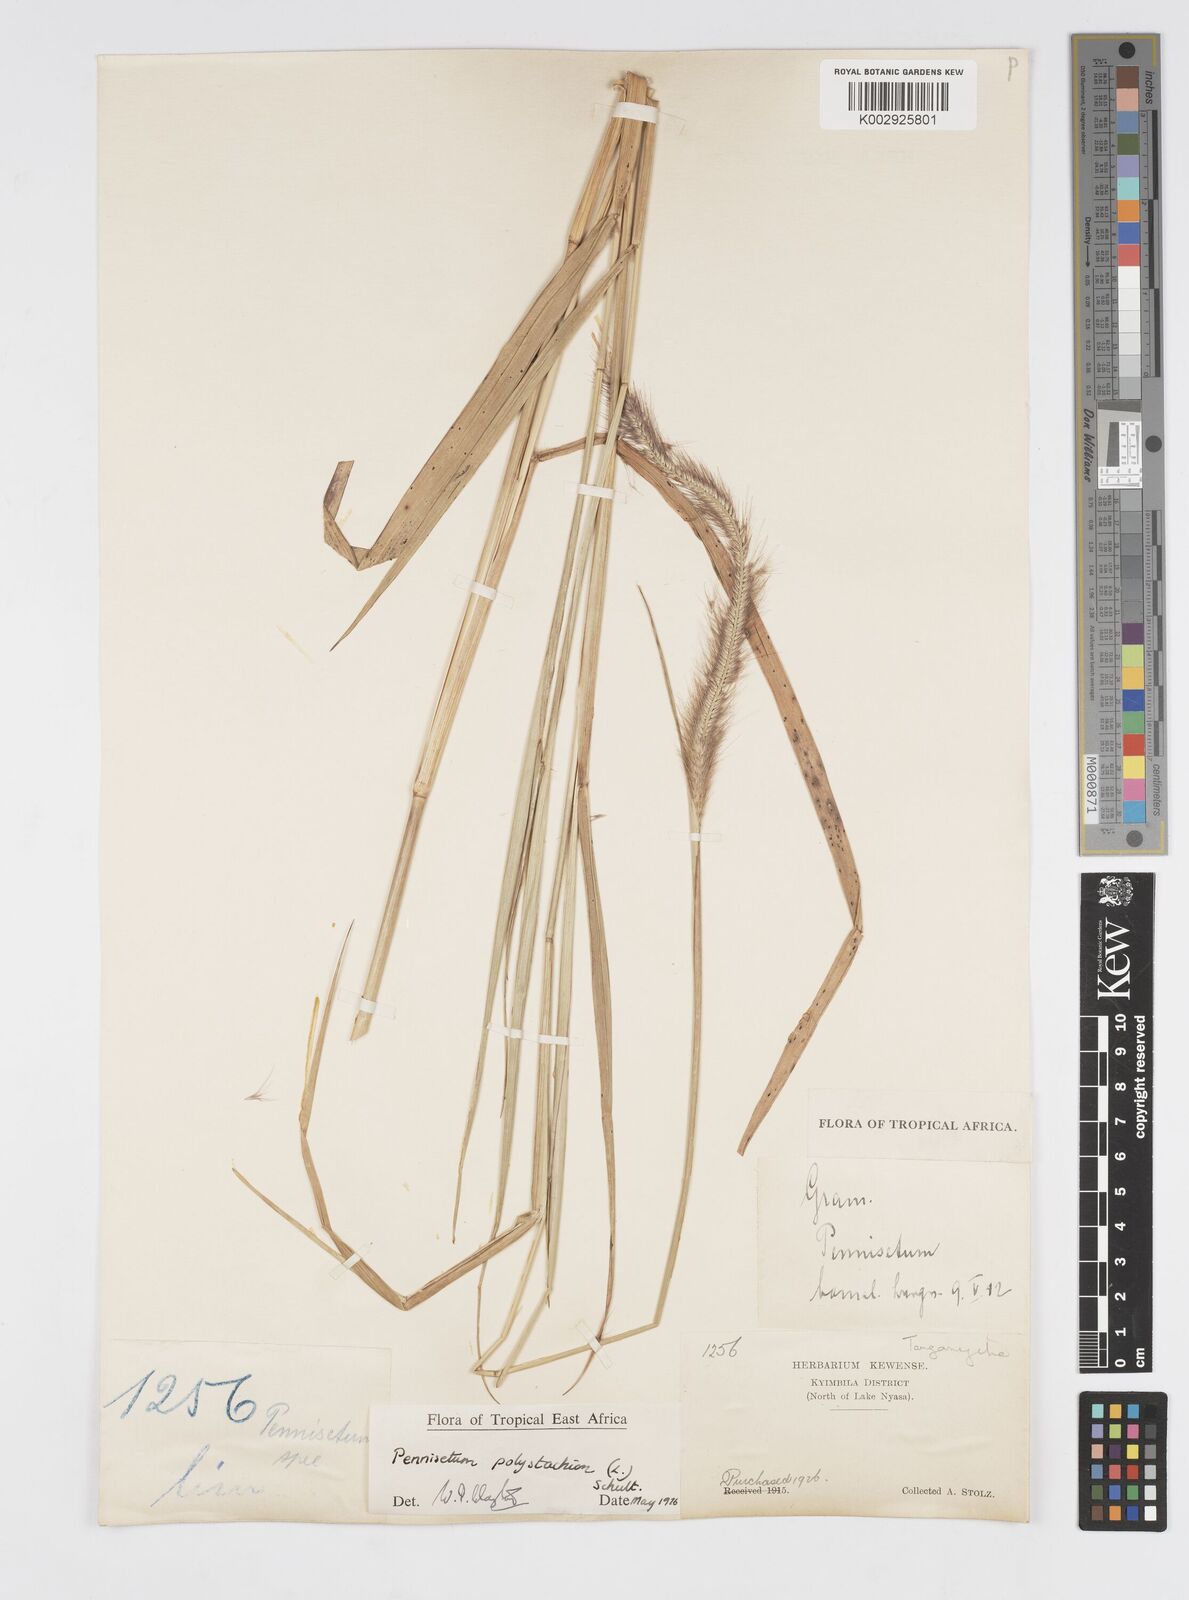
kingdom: Plantae
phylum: Tracheophyta
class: Liliopsida
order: Poales
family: Poaceae
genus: Setaria
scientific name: Setaria parviflora
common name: Knotroot bristle-grass
